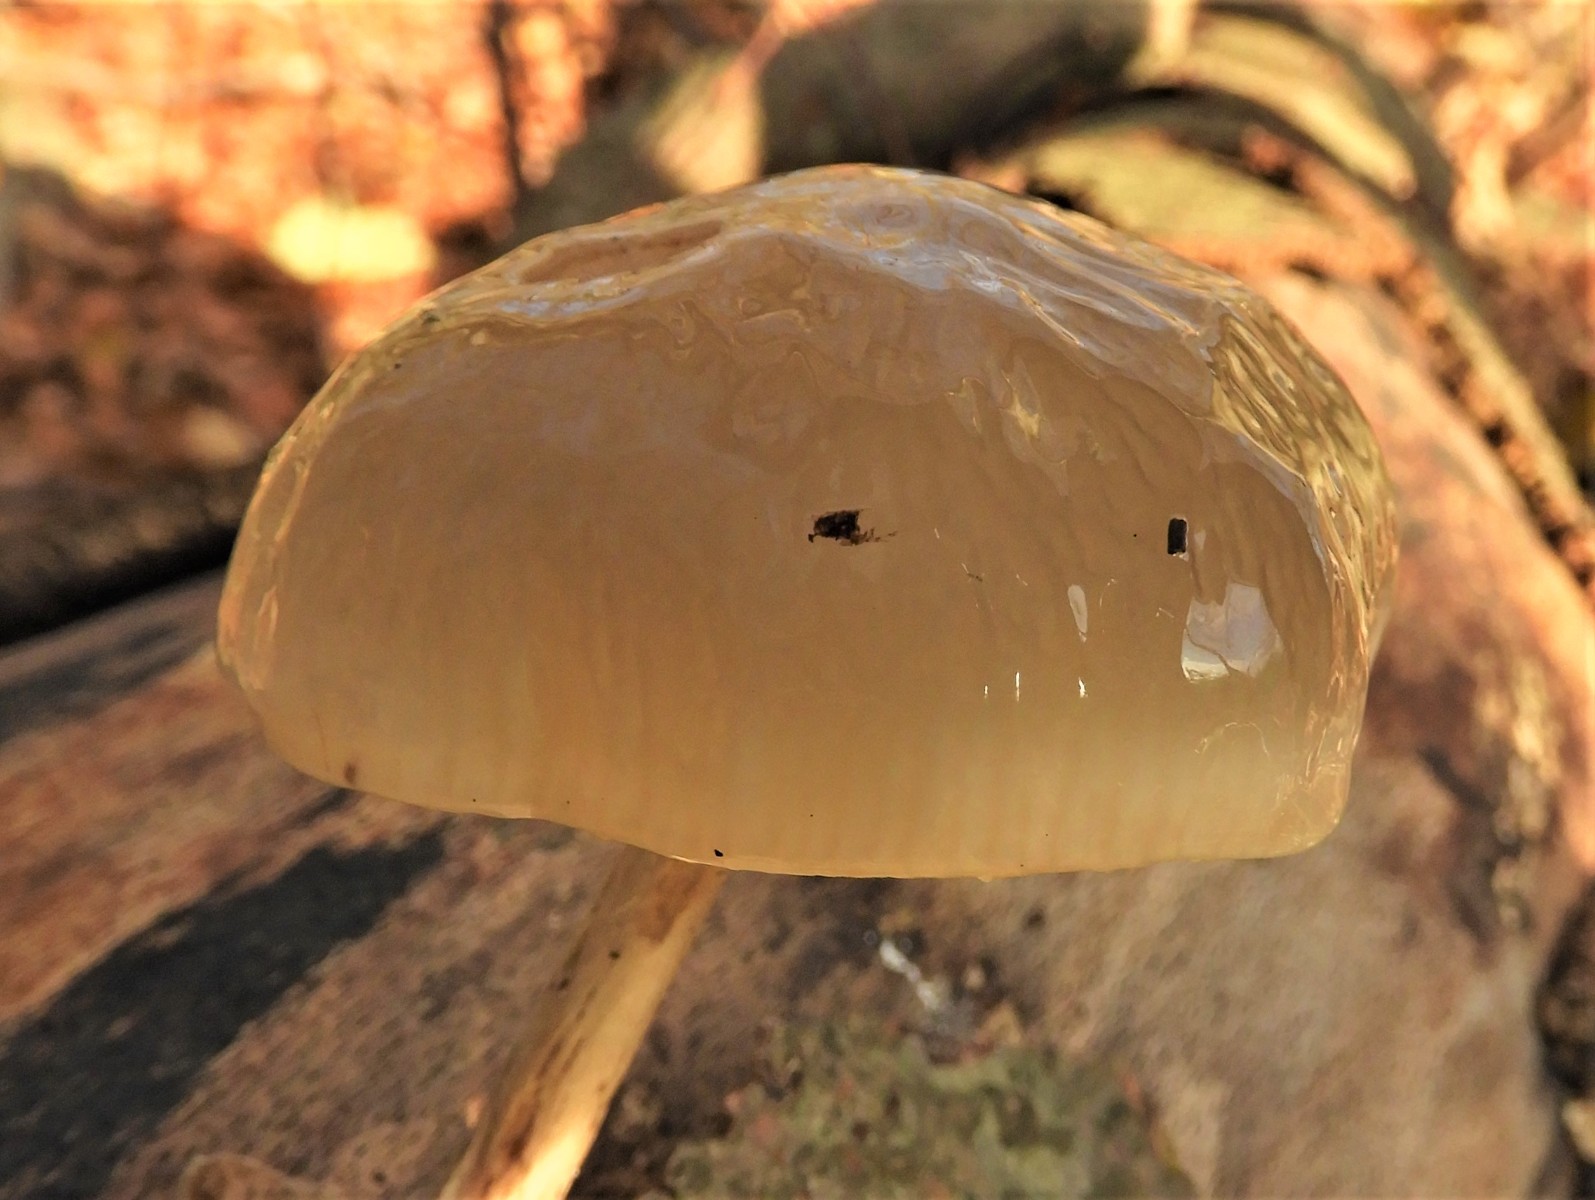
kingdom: Fungi
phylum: Basidiomycota
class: Agaricomycetes
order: Agaricales
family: Physalacriaceae
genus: Mucidula
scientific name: Mucidula mucida
